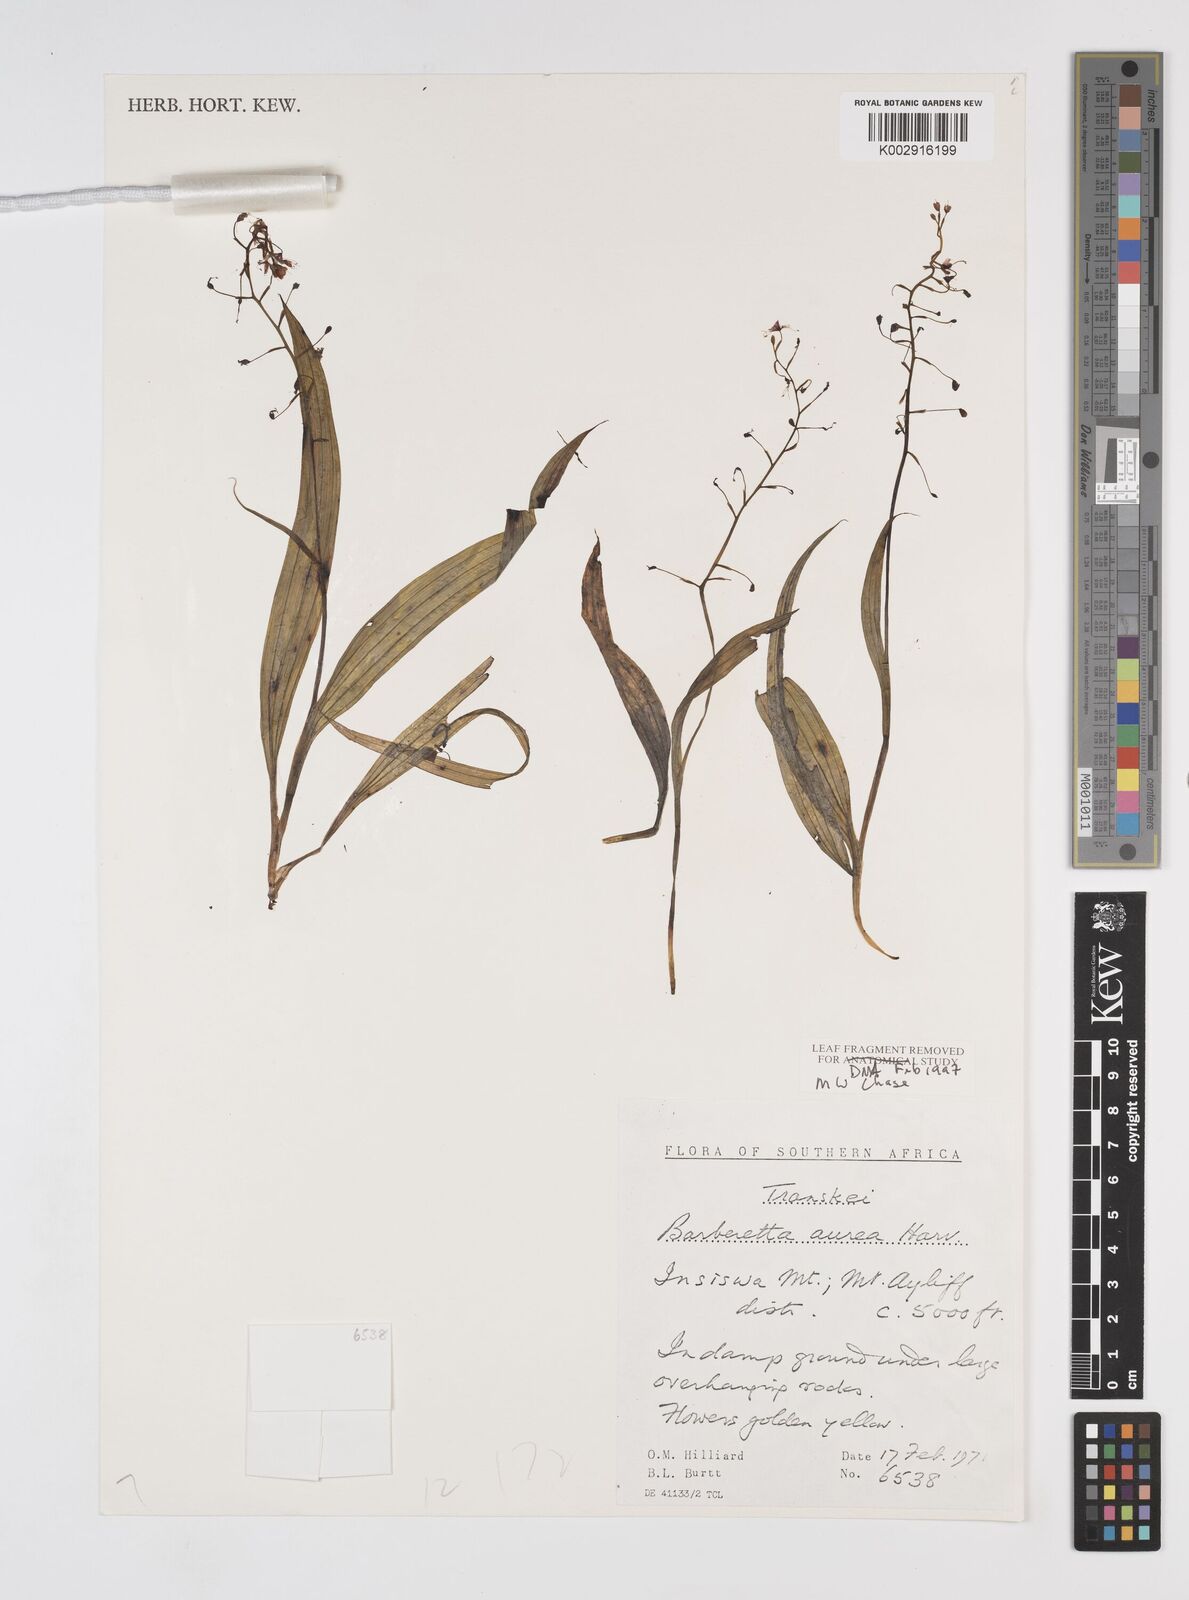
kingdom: Plantae
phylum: Tracheophyta
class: Liliopsida
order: Commelinales
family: Haemodoraceae
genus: Barberetta
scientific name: Barberetta aurea
